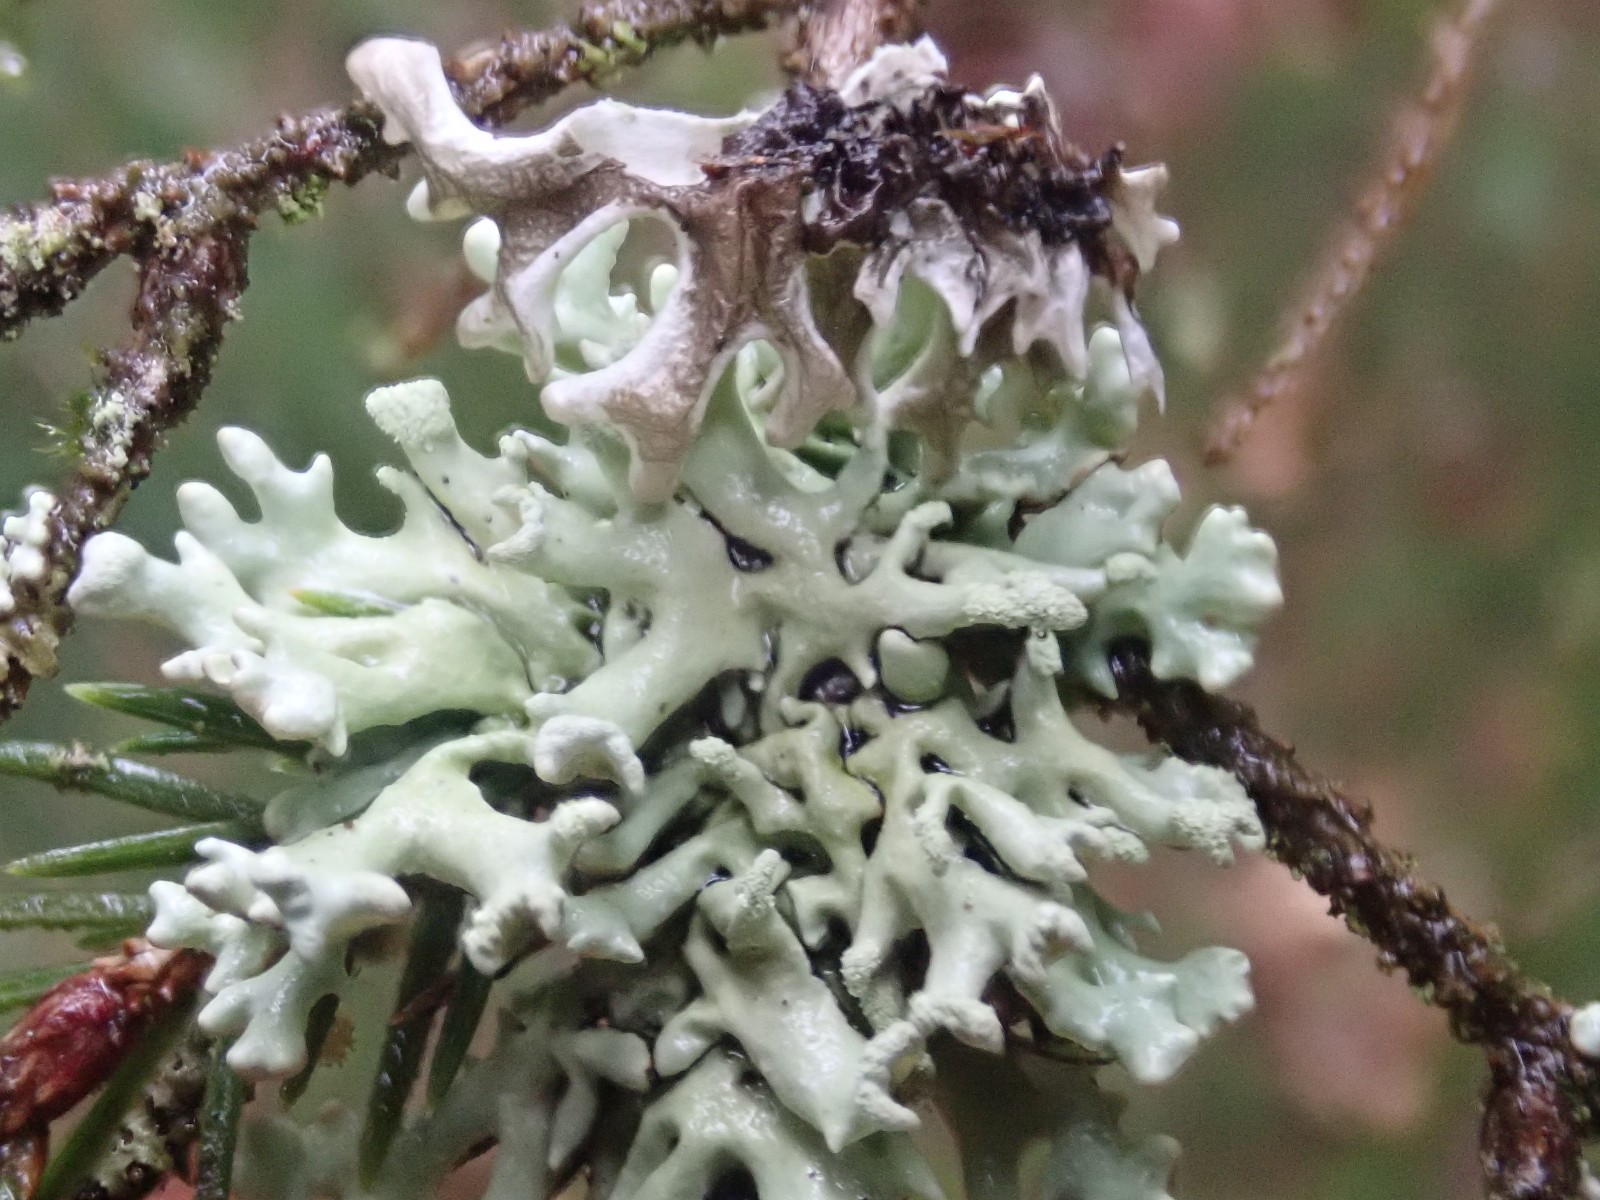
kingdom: Fungi
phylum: Ascomycota
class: Lecanoromycetes
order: Lecanorales
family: Parmeliaceae
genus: Hypogymnia
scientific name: Hypogymnia tubulosa
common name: finger-kvistlav
